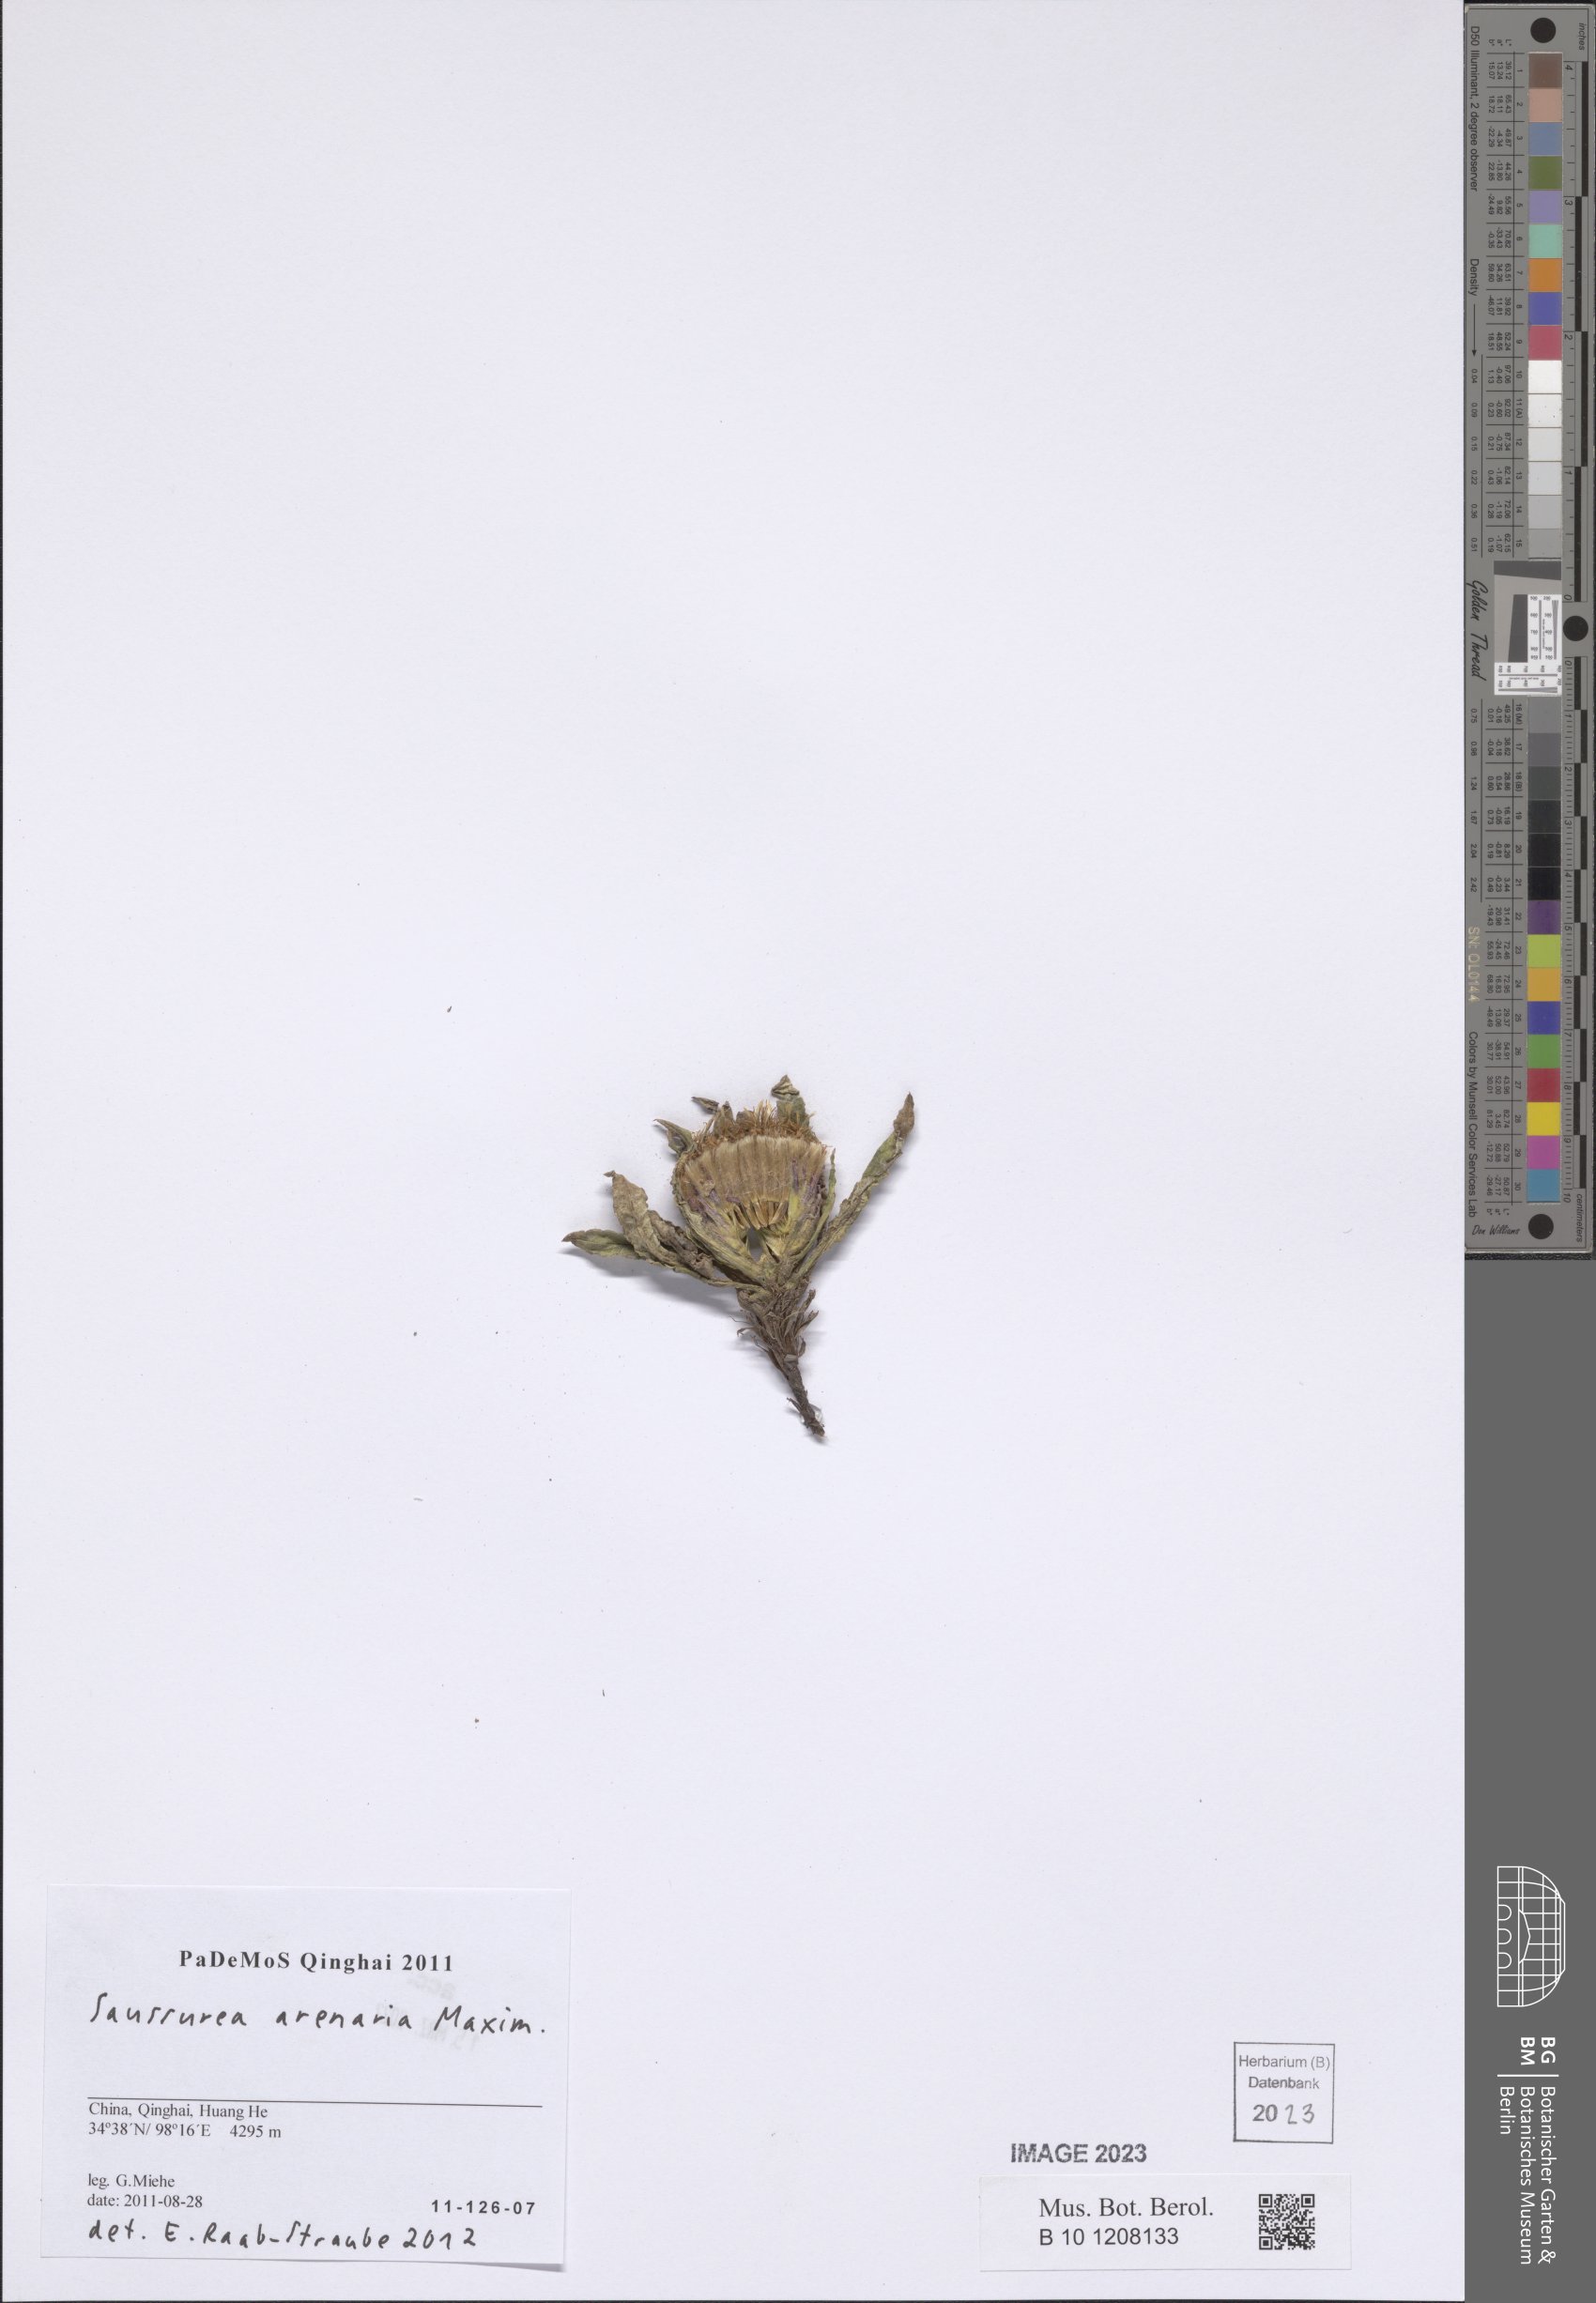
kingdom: Plantae
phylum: Tracheophyta
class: Magnoliopsida
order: Asterales
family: Asteraceae
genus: Saussurea
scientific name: Saussurea arenaria
